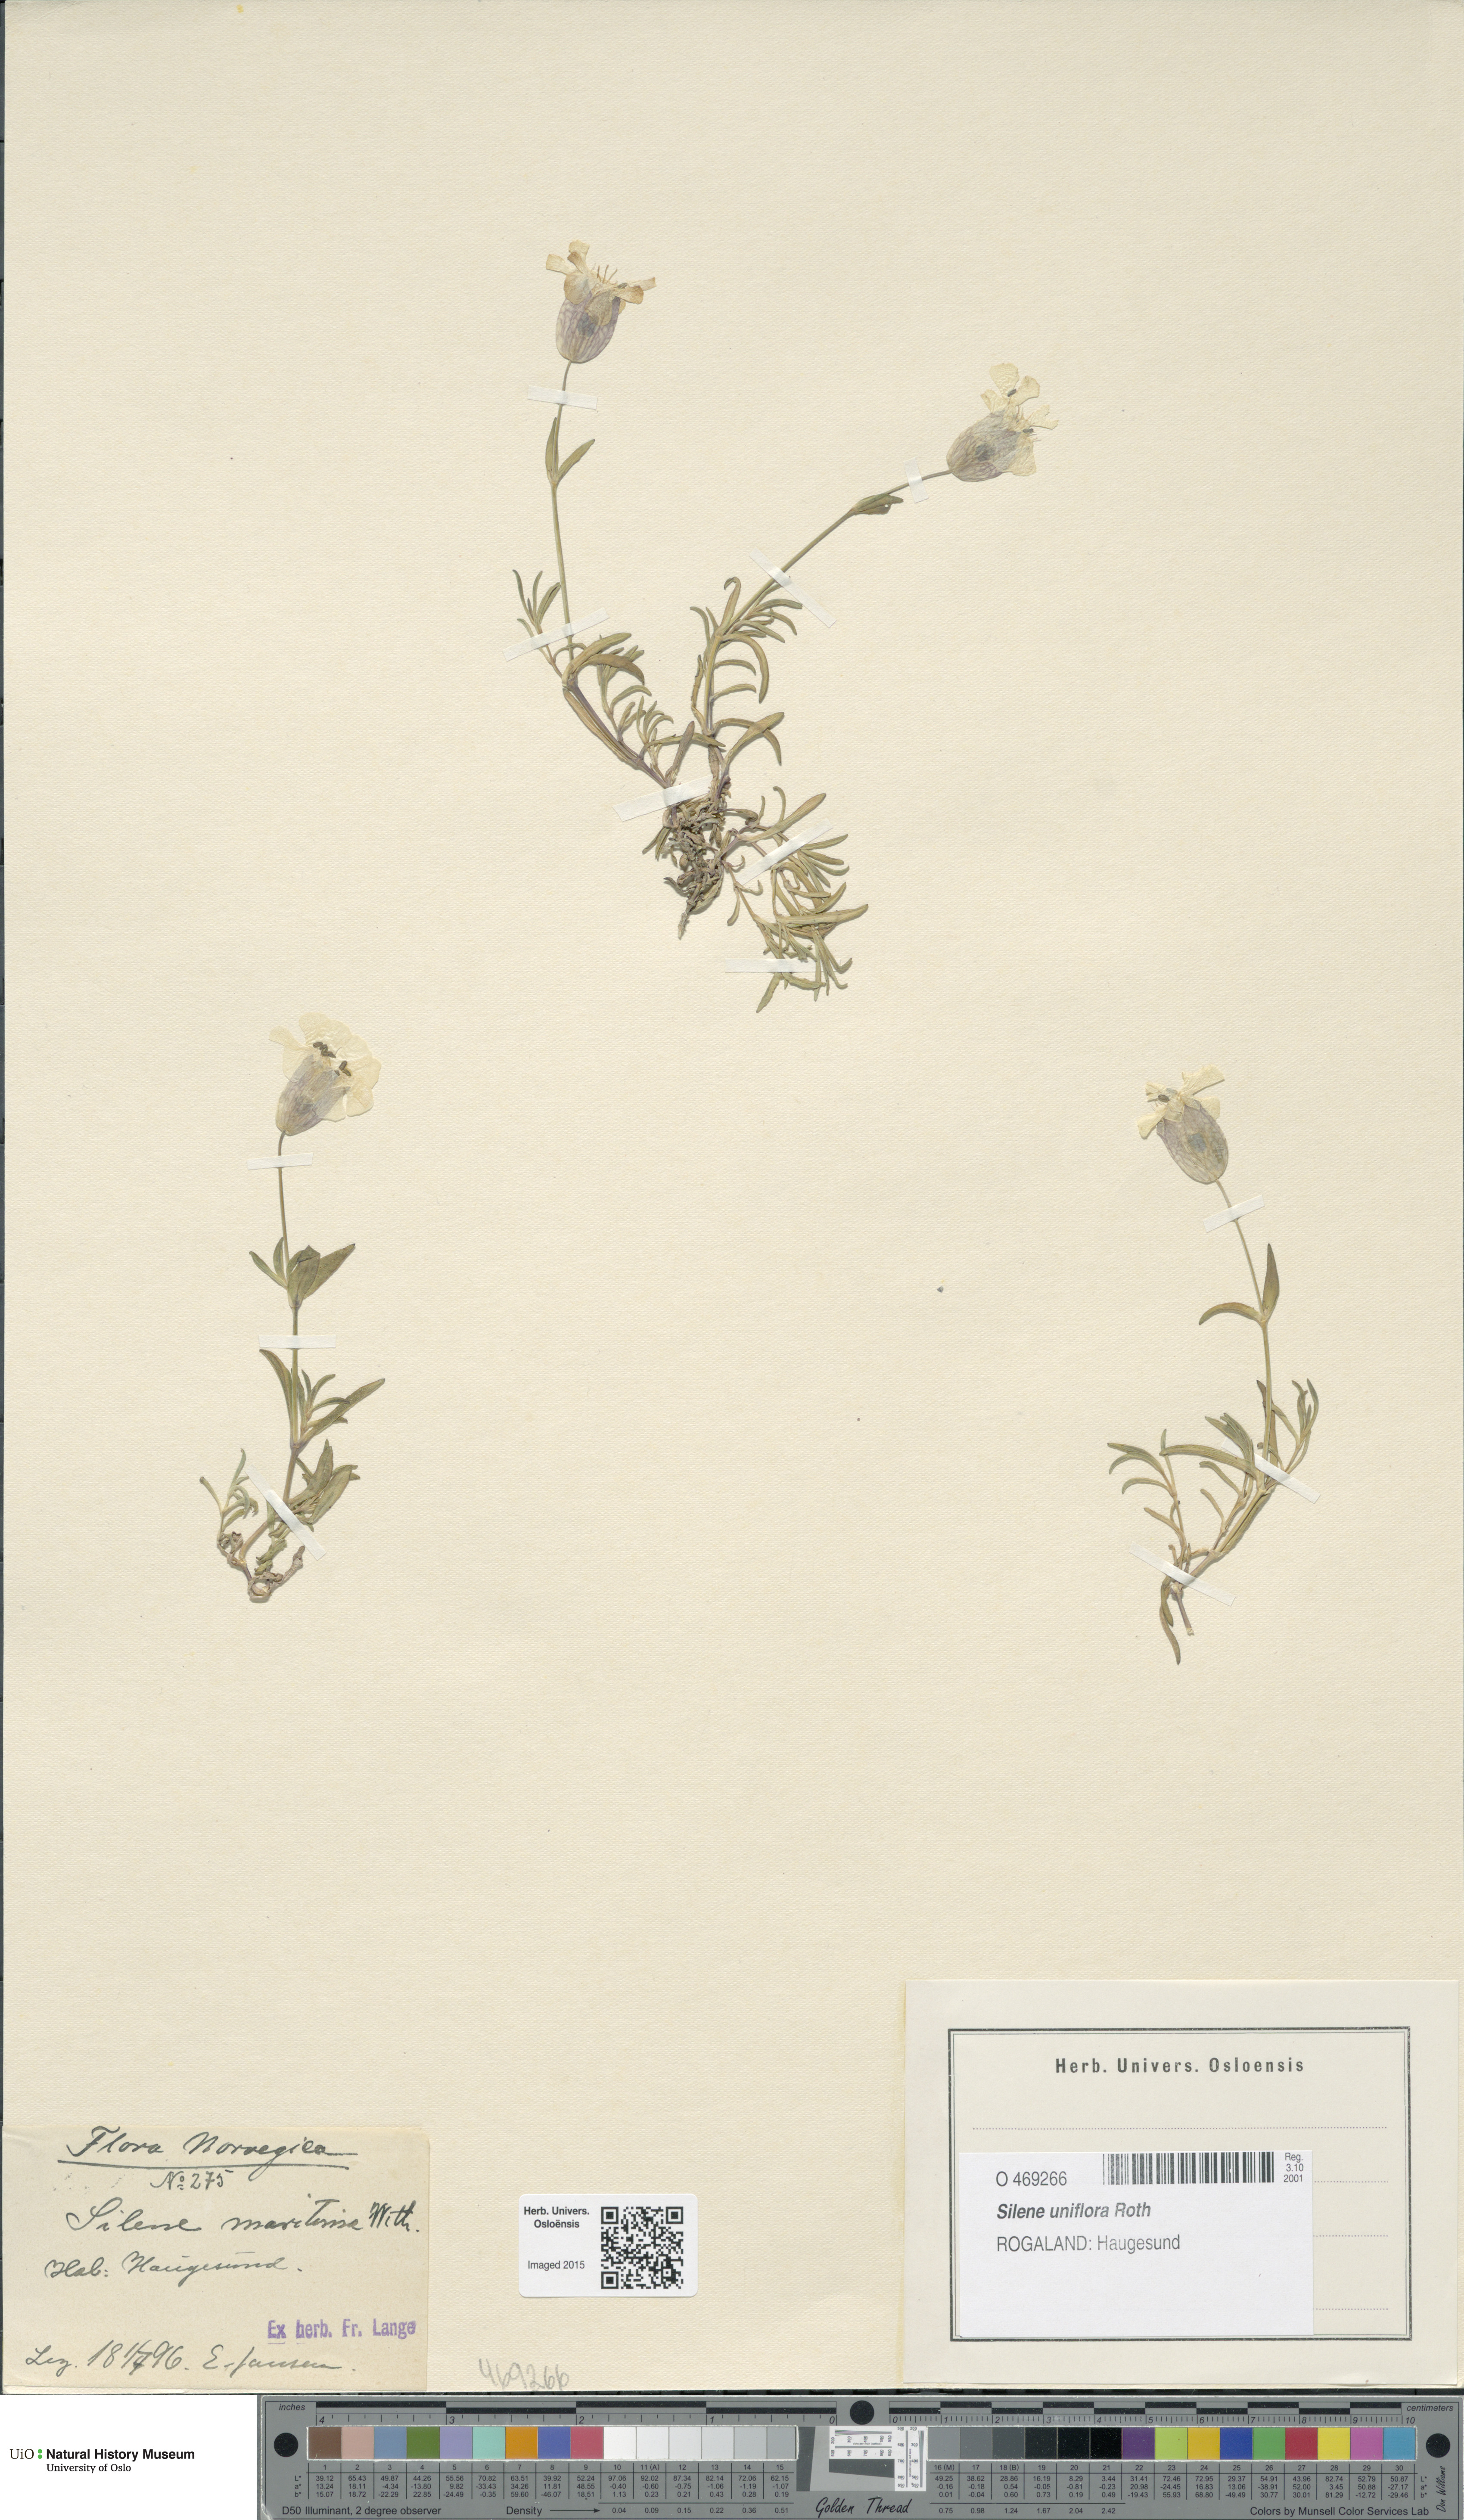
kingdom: Plantae
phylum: Tracheophyta
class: Magnoliopsida
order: Caryophyllales
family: Caryophyllaceae
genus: Silene
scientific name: Silene uniflora
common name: Sea campion
